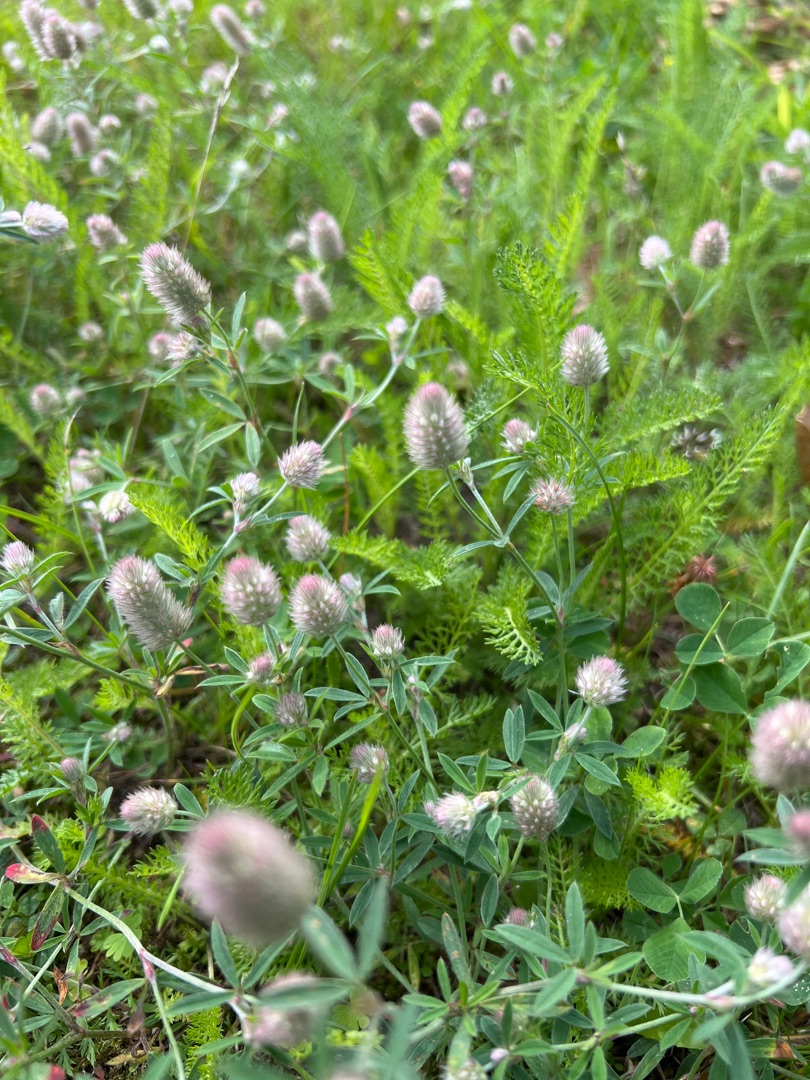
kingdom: Plantae
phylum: Tracheophyta
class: Magnoliopsida
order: Fabales
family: Fabaceae
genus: Trifolium
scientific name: Trifolium arvense
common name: Hare-kløver
